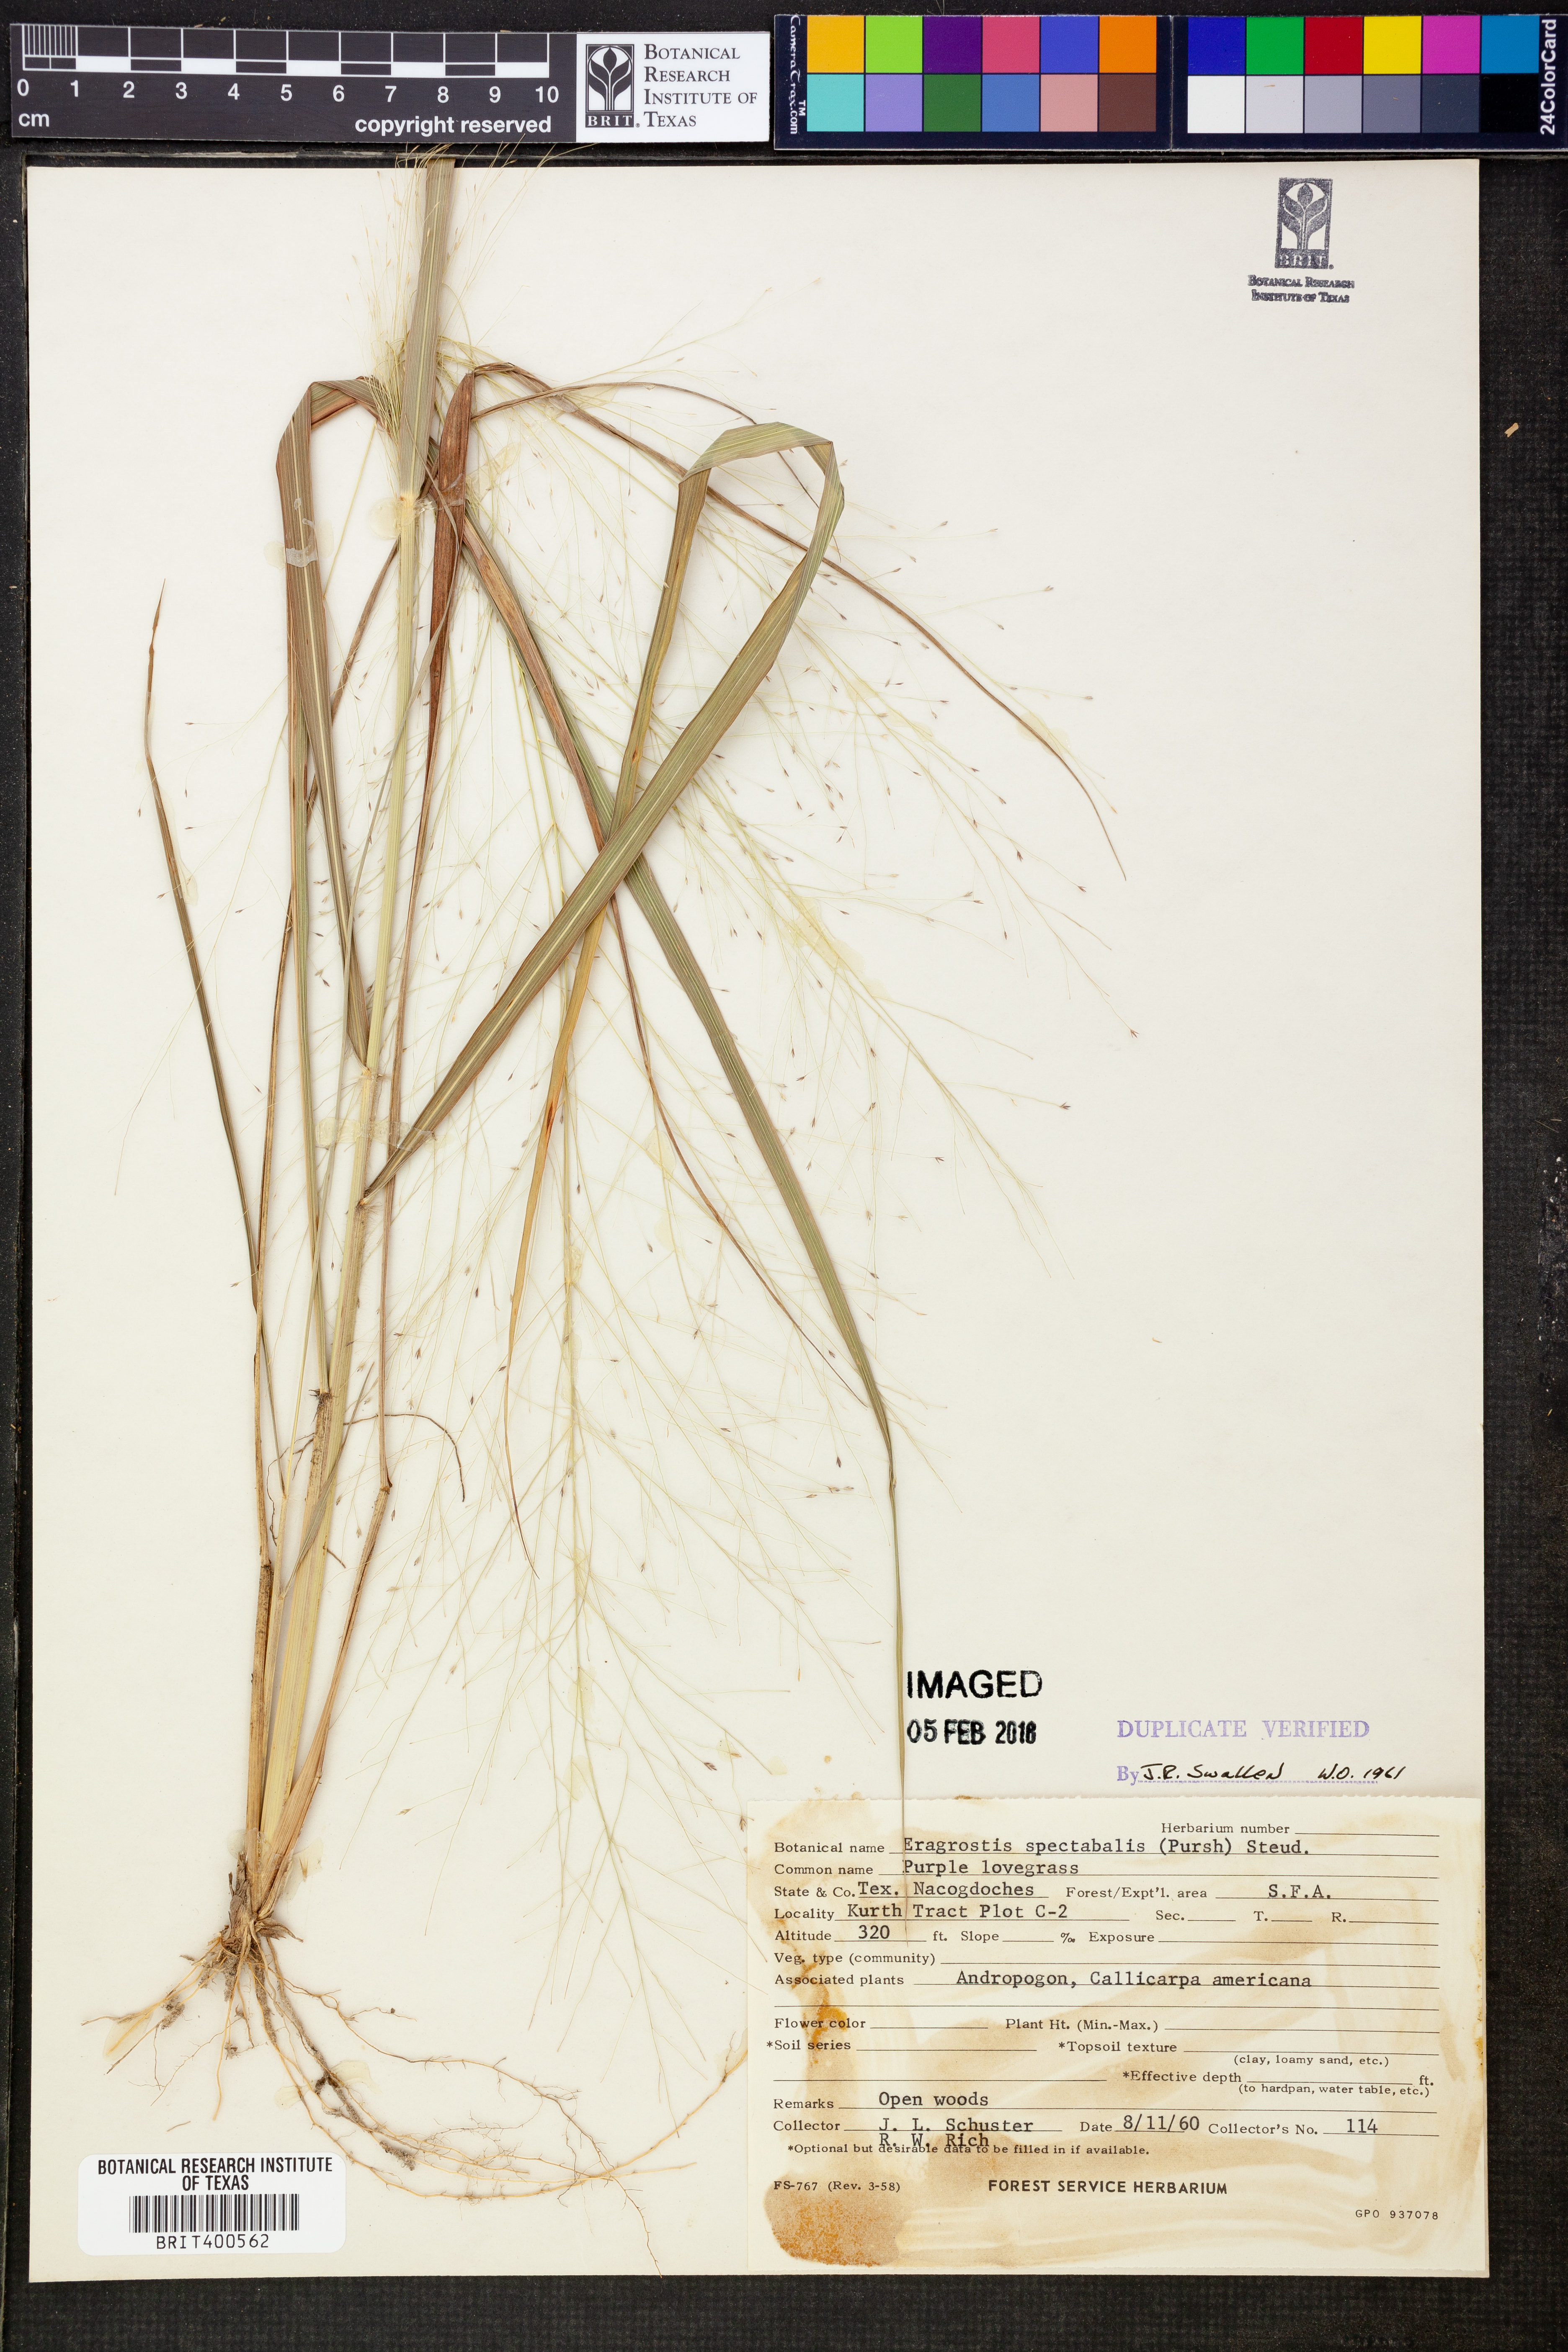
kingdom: Plantae
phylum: Tracheophyta
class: Liliopsida
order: Poales
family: Poaceae
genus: Eragrostis
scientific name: Eragrostis spectabilis
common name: Petticoat-climber
